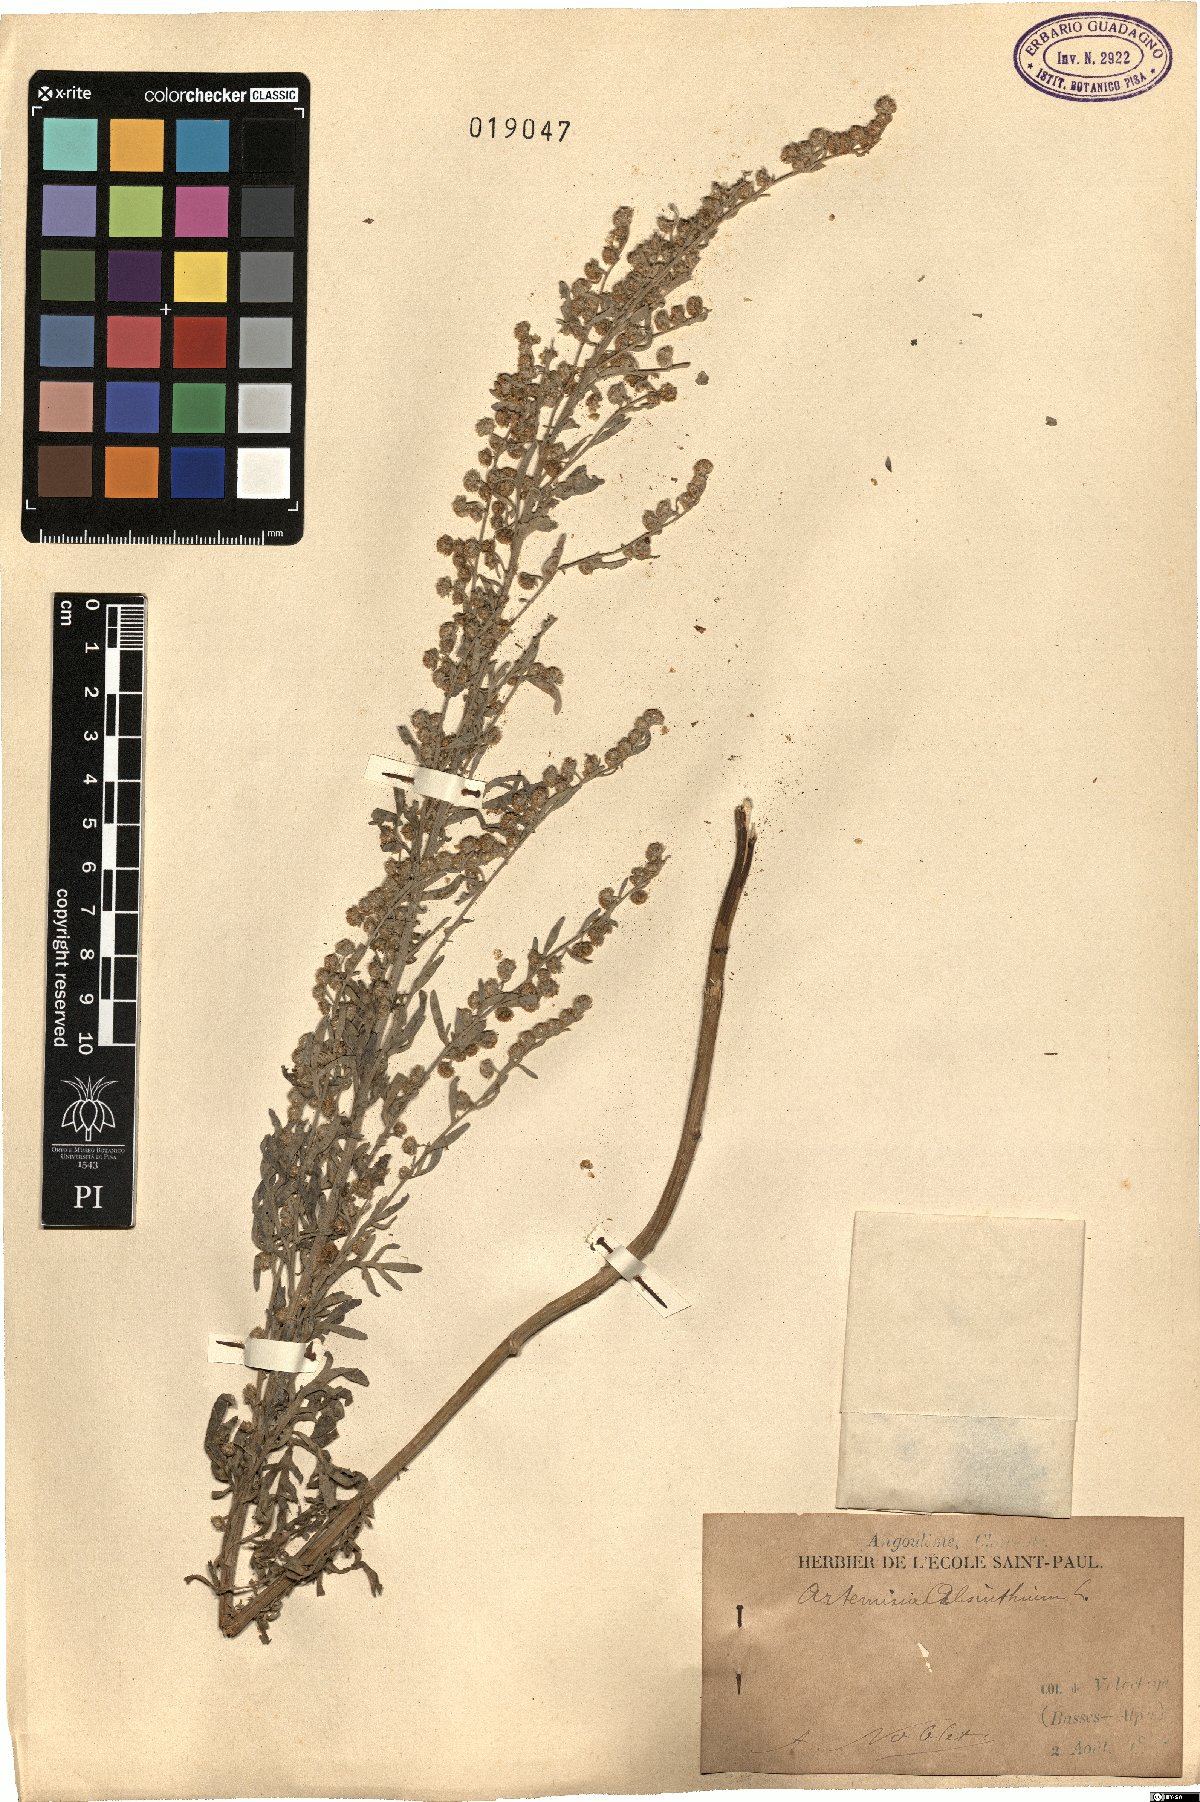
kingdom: Plantae
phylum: Tracheophyta
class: Magnoliopsida
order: Asterales
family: Asteraceae
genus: Artemisia
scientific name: Artemisia absinthium
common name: Wormwood
